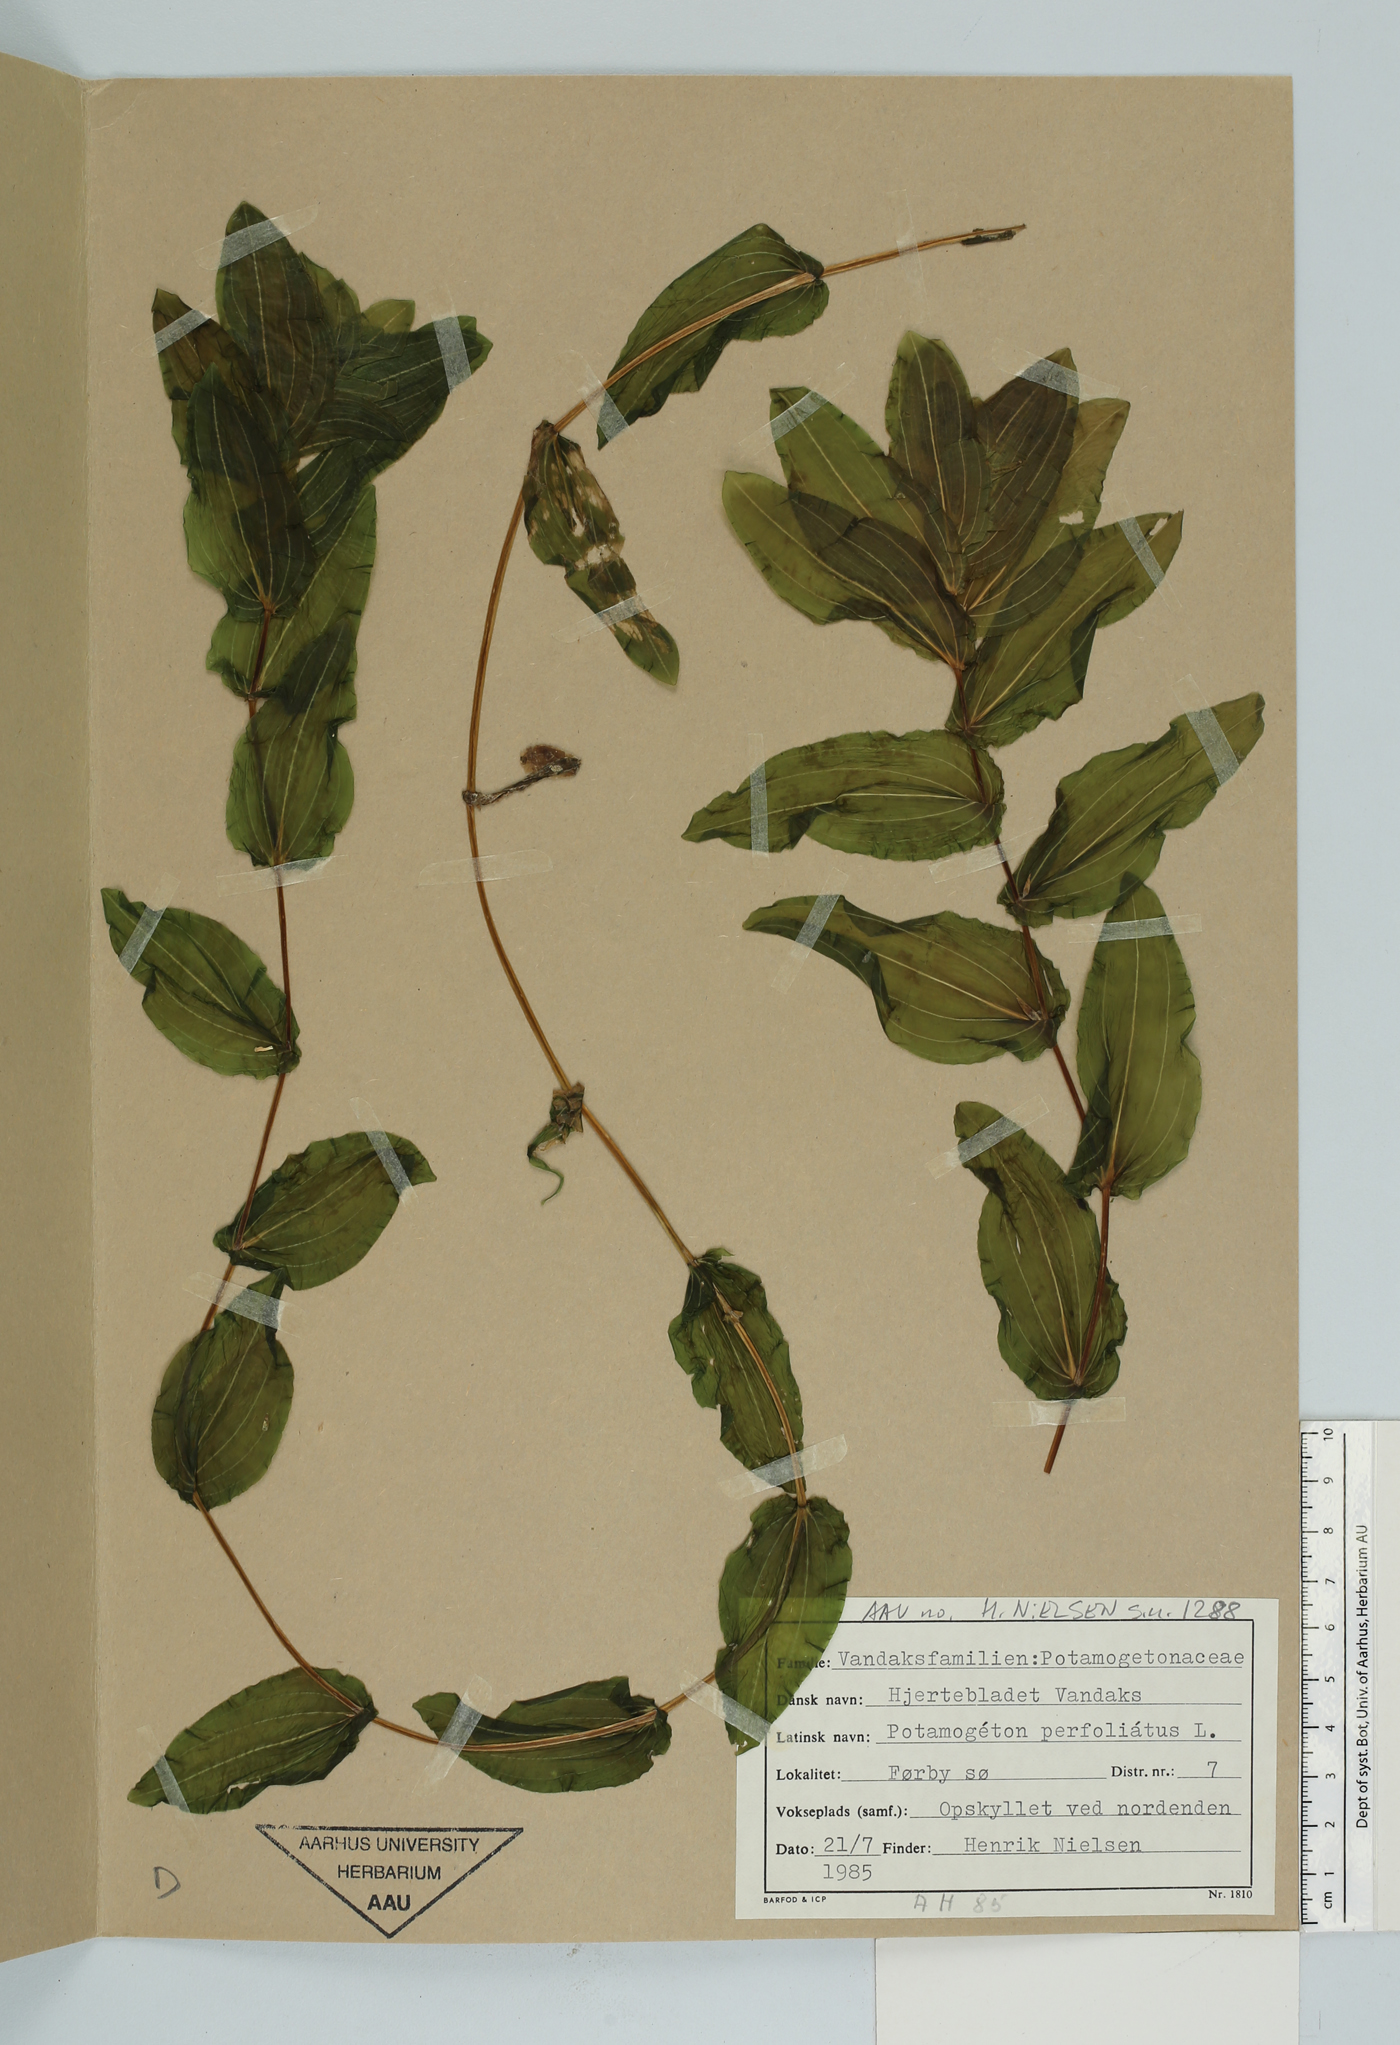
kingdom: Plantae
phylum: Tracheophyta
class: Liliopsida
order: Alismatales
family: Potamogetonaceae
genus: Potamogeton
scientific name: Potamogeton perfoliatus
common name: Perfoliate pondweed
